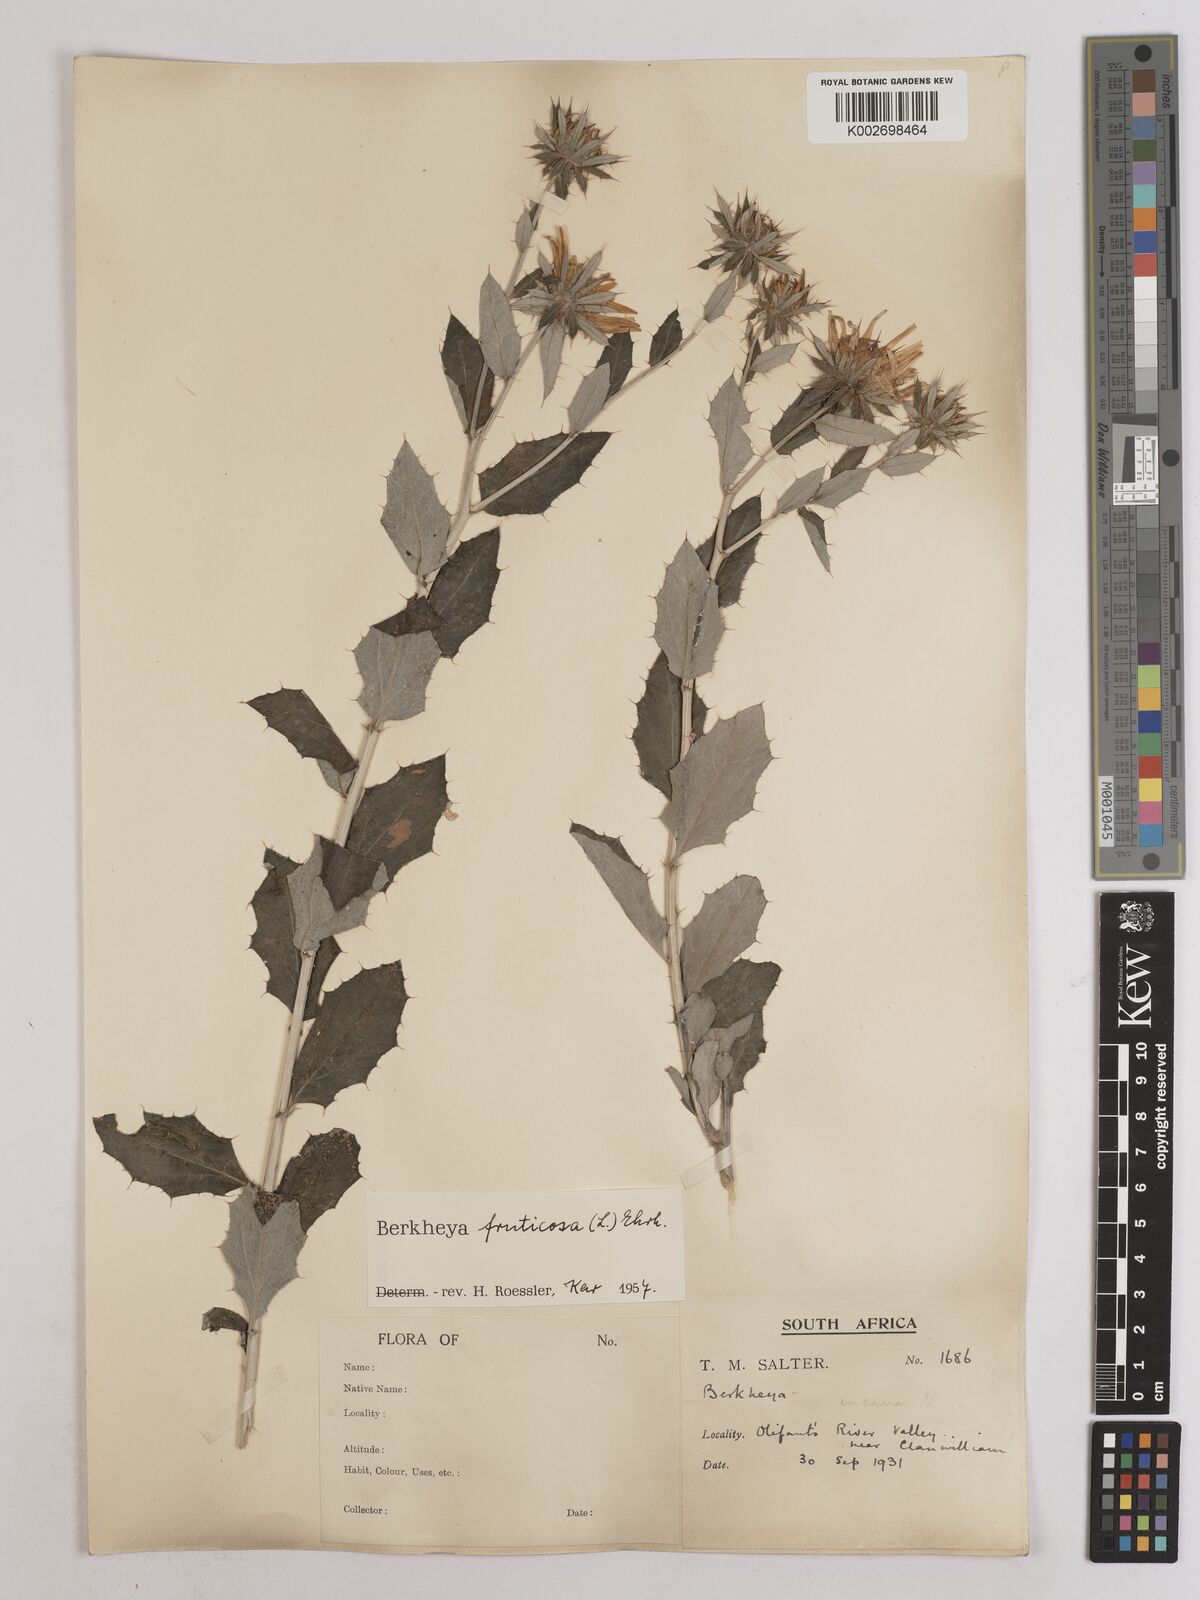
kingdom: Plantae
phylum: Tracheophyta
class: Magnoliopsida
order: Asterales
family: Asteraceae
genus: Berkheya
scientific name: Berkheya fruticosa
